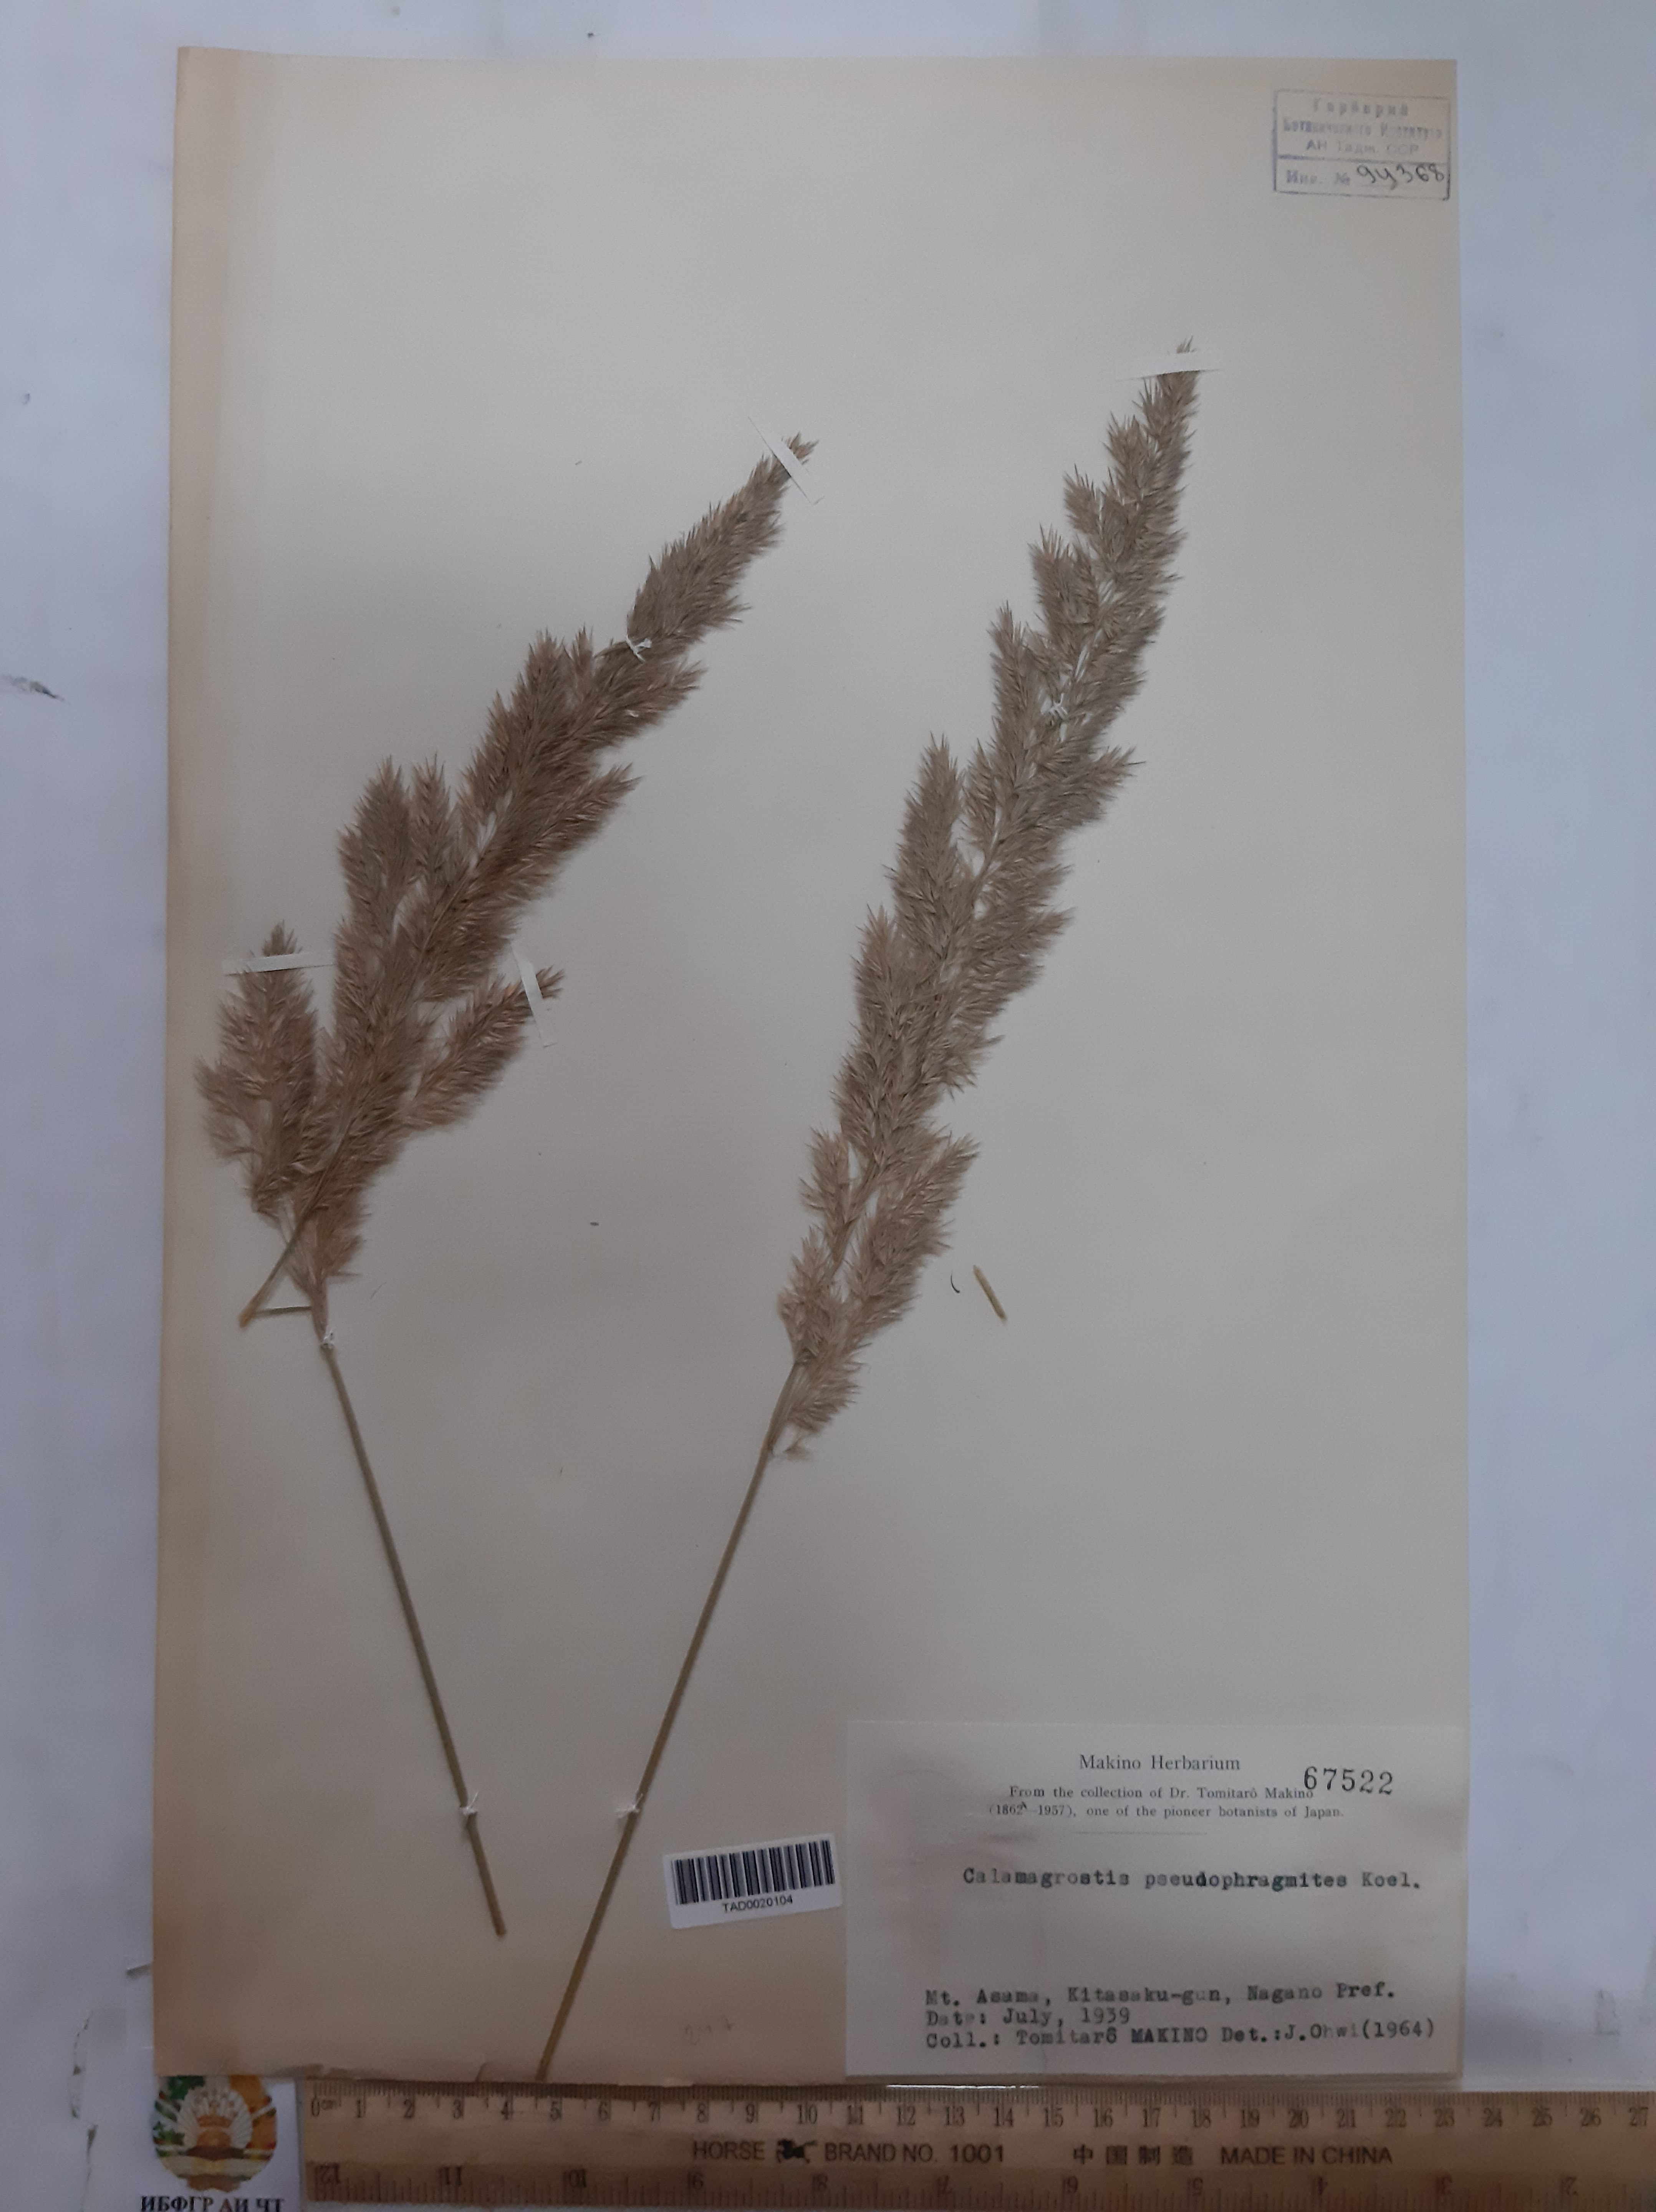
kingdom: Plantae
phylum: Tracheophyta
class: Liliopsida
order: Poales
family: Poaceae
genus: Calamagrostis
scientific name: Calamagrostis pseudophragmites
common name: Coastal small-reed
